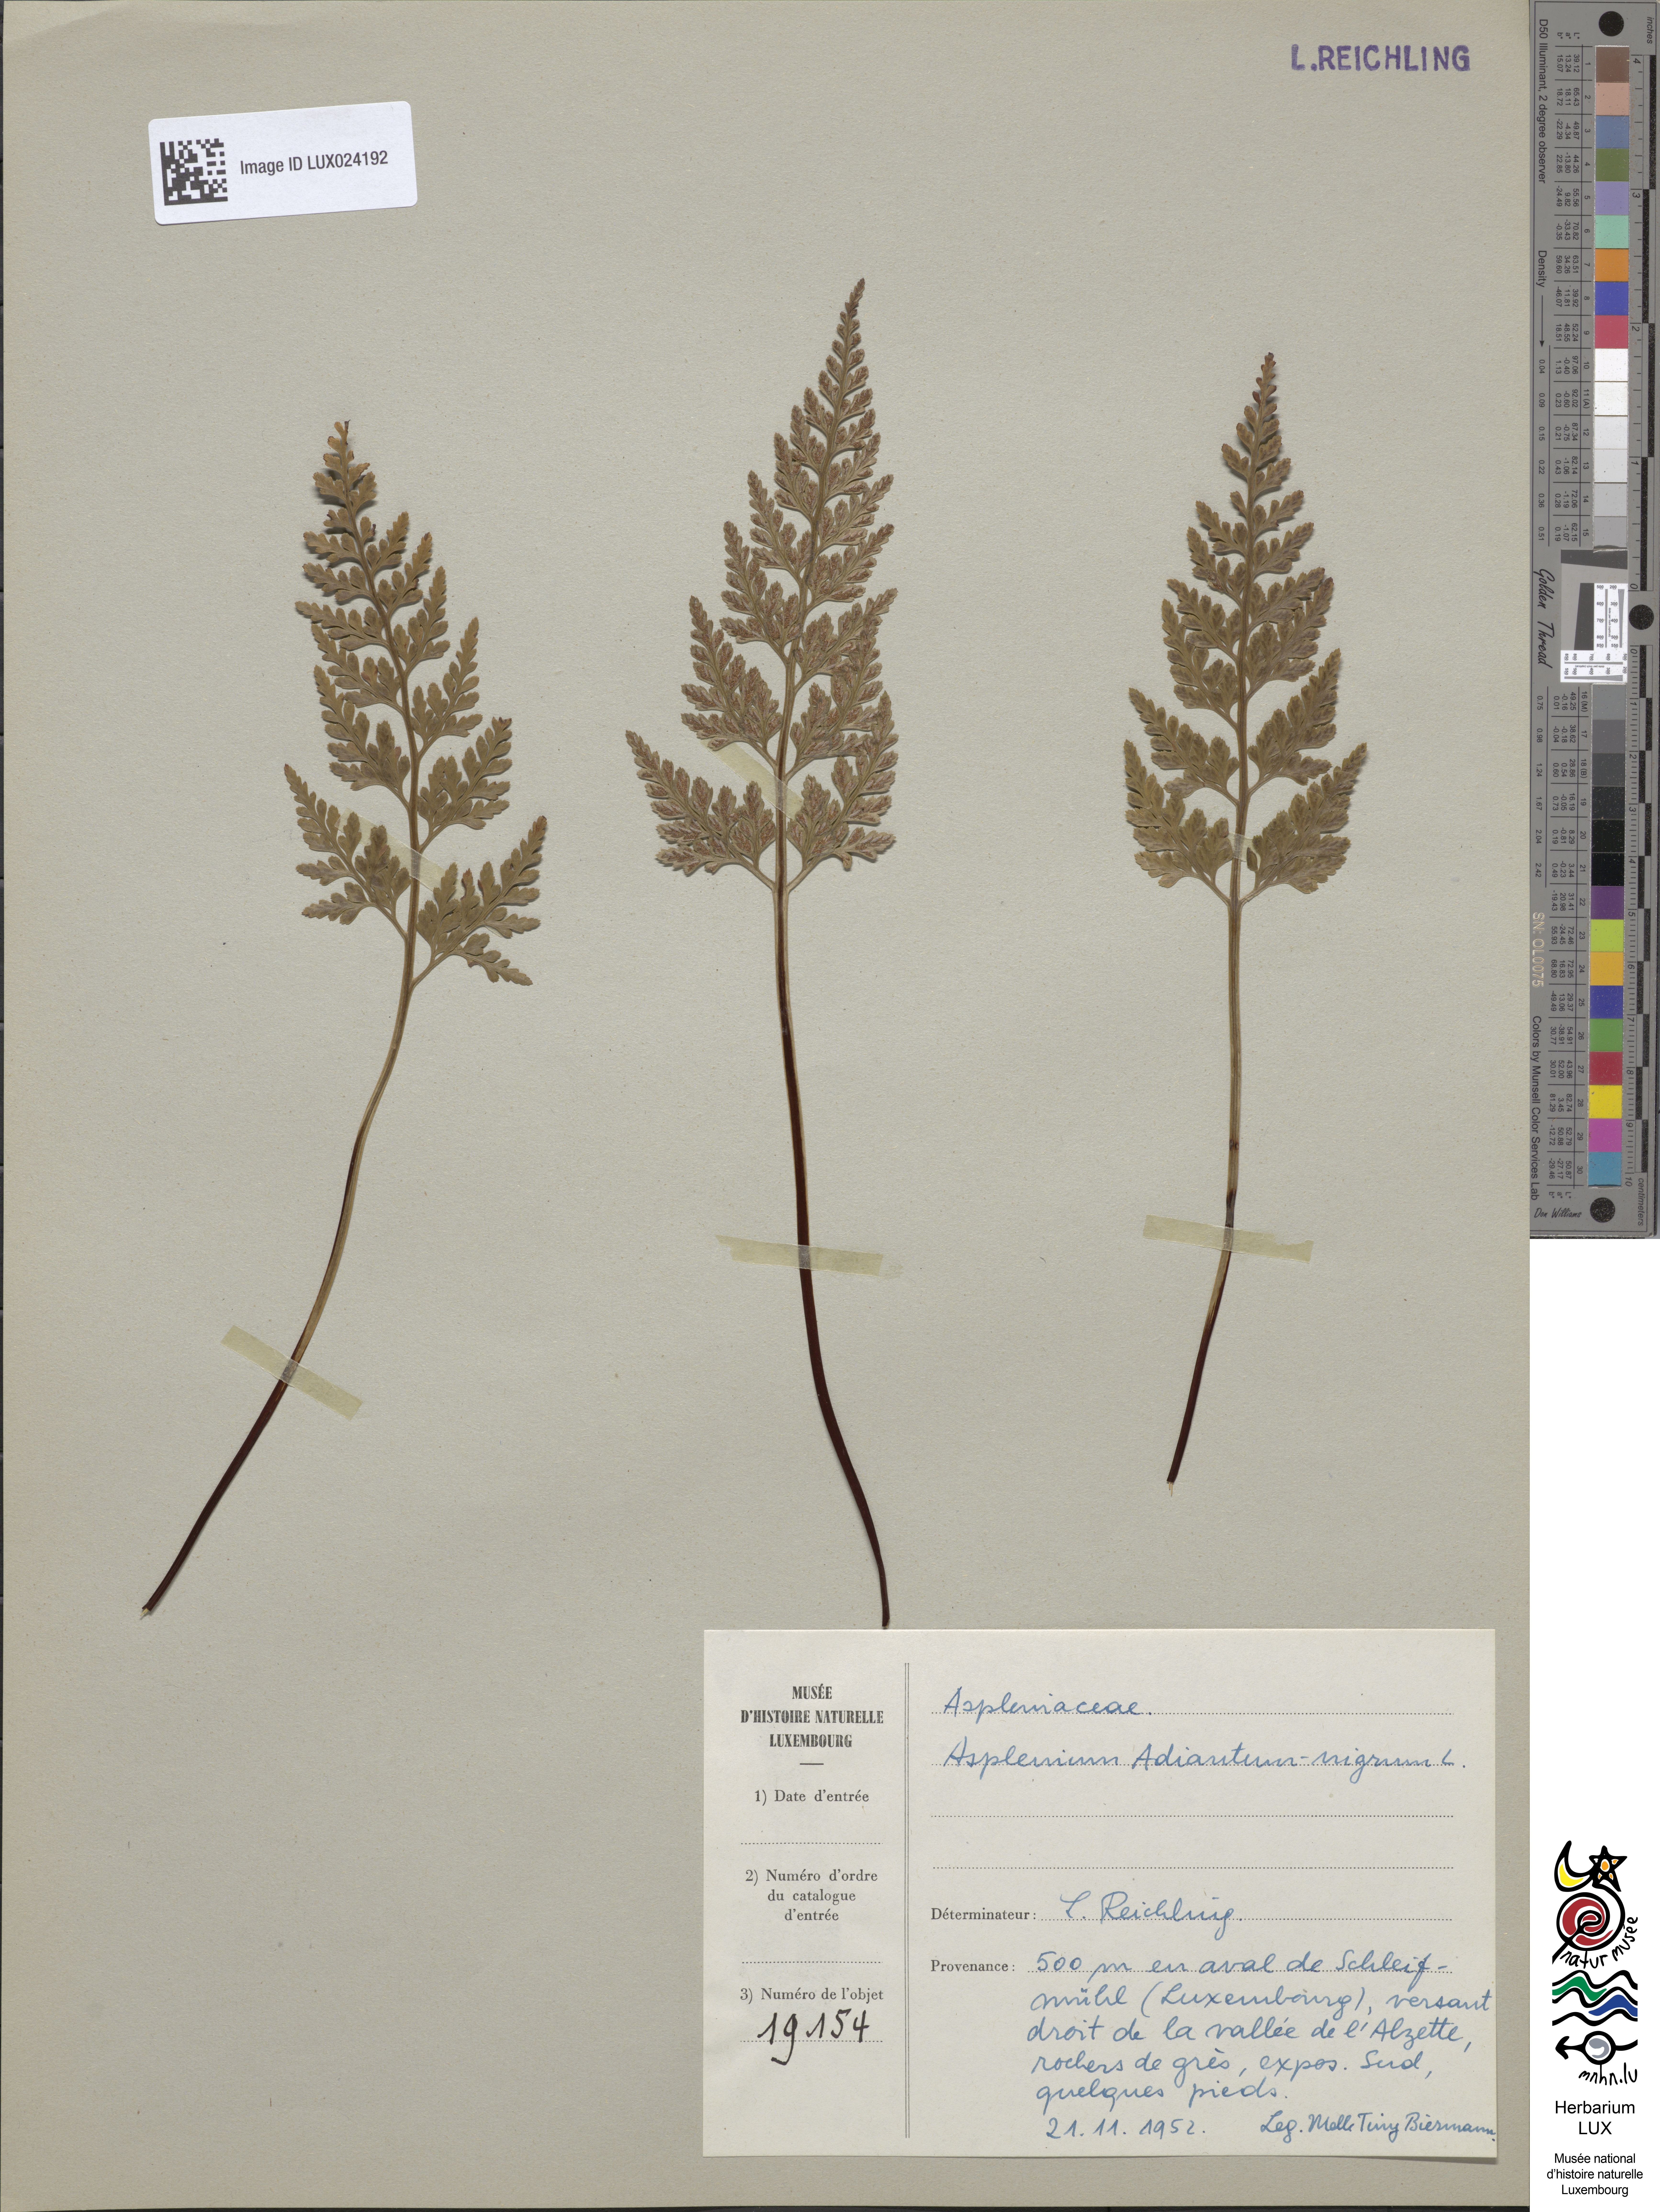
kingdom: Plantae
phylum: Tracheophyta
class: Polypodiopsida
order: Polypodiales
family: Aspleniaceae
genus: Asplenium
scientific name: Asplenium adiantum-nigrum
